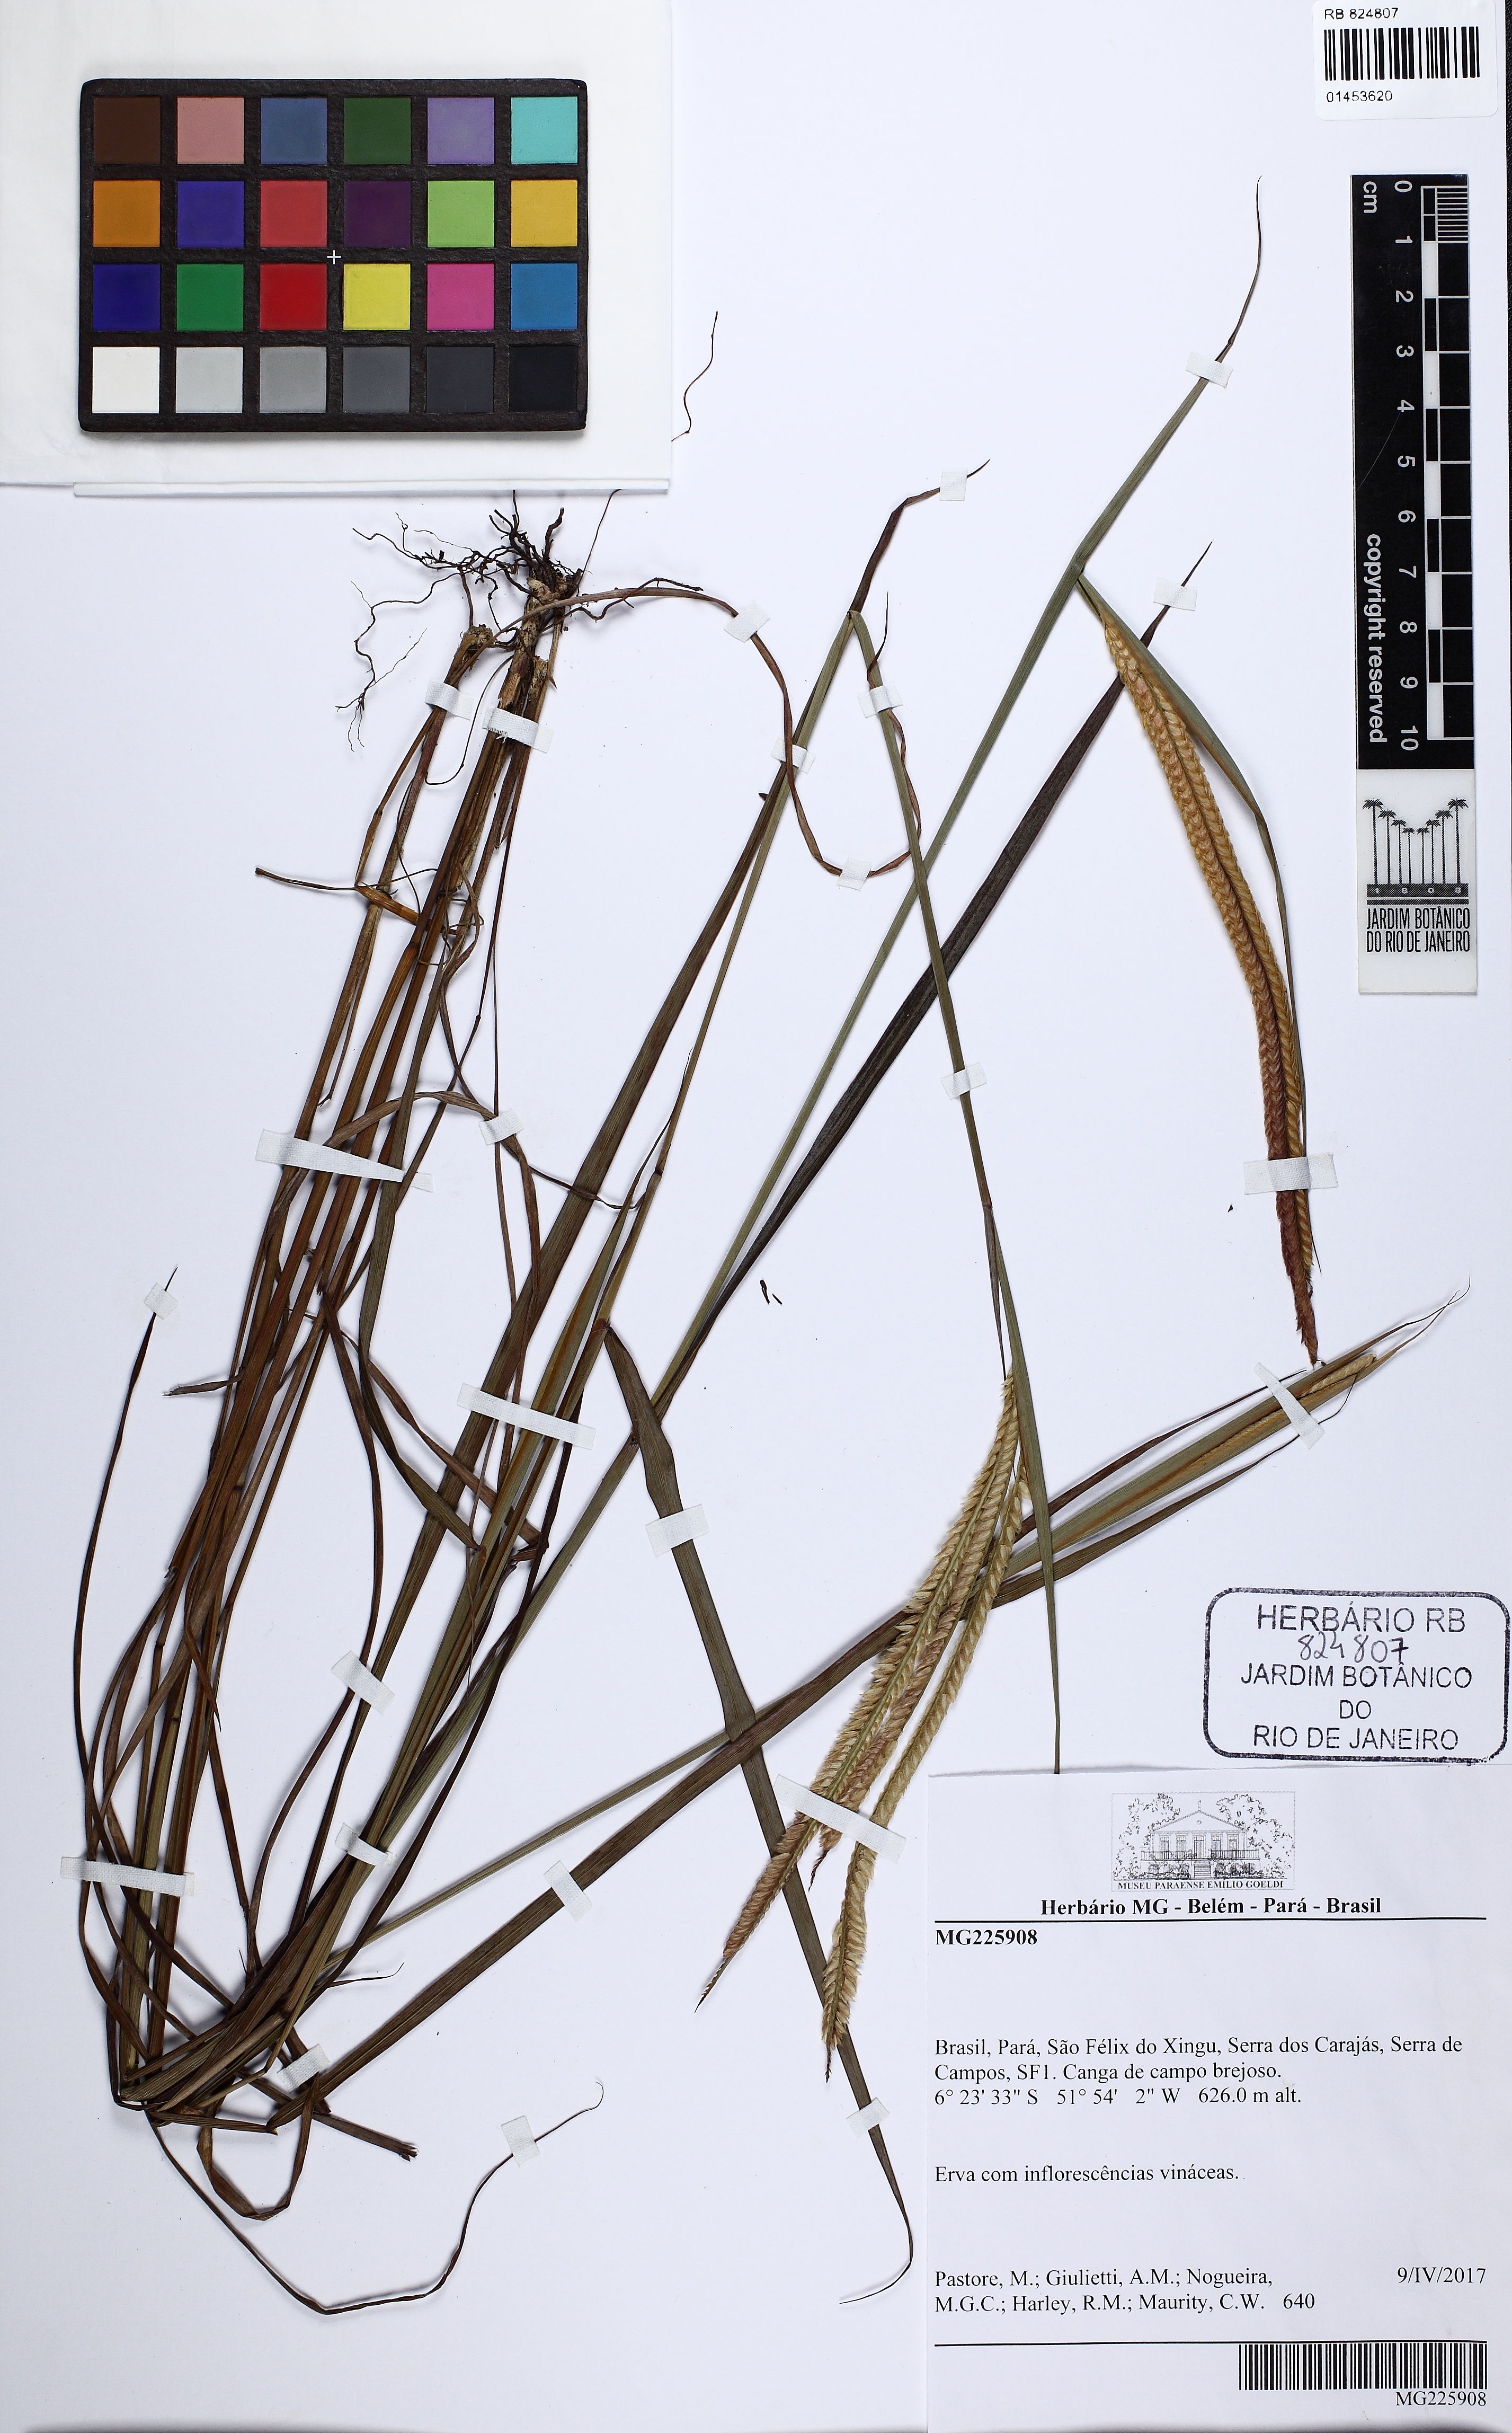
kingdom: Plantae
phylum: Tracheophyta
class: Liliopsida
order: Poales
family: Poaceae
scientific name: Poaceae
